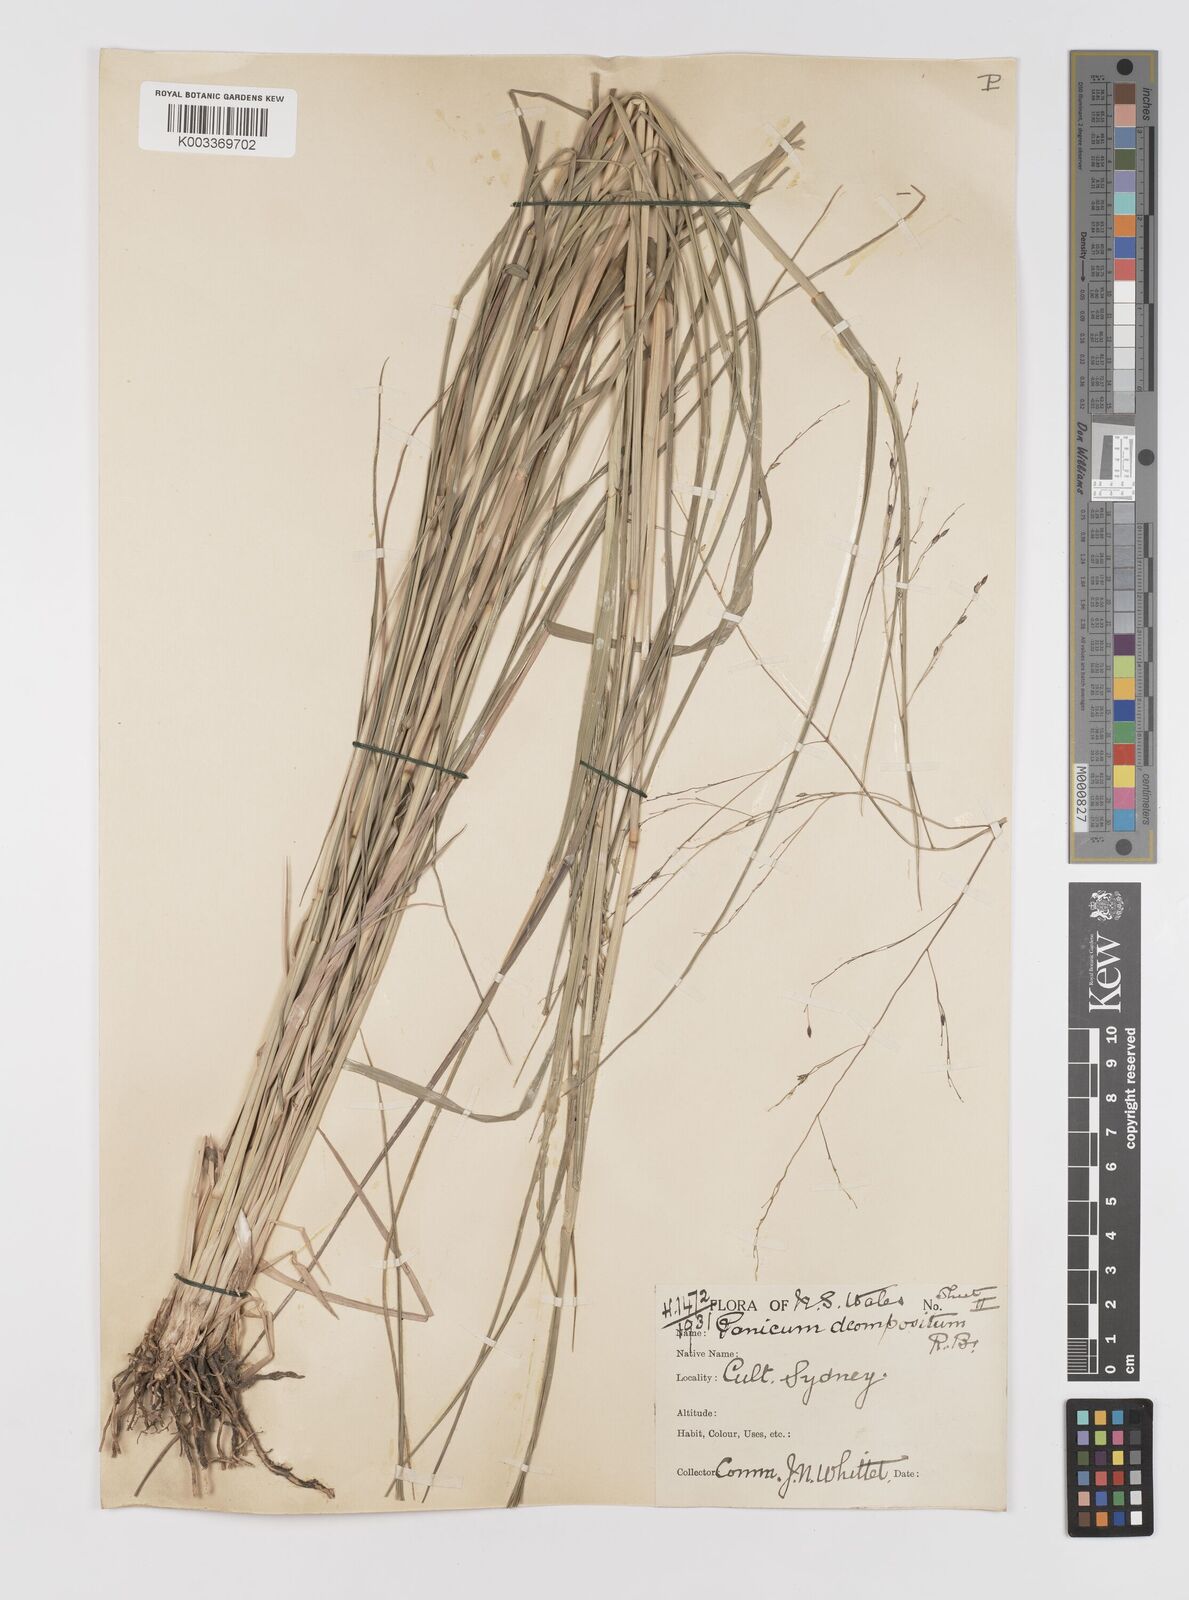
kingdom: Plantae
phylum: Tracheophyta
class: Liliopsida
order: Poales
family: Poaceae
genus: Panicum
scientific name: Panicum decompositum
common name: Australian millet
